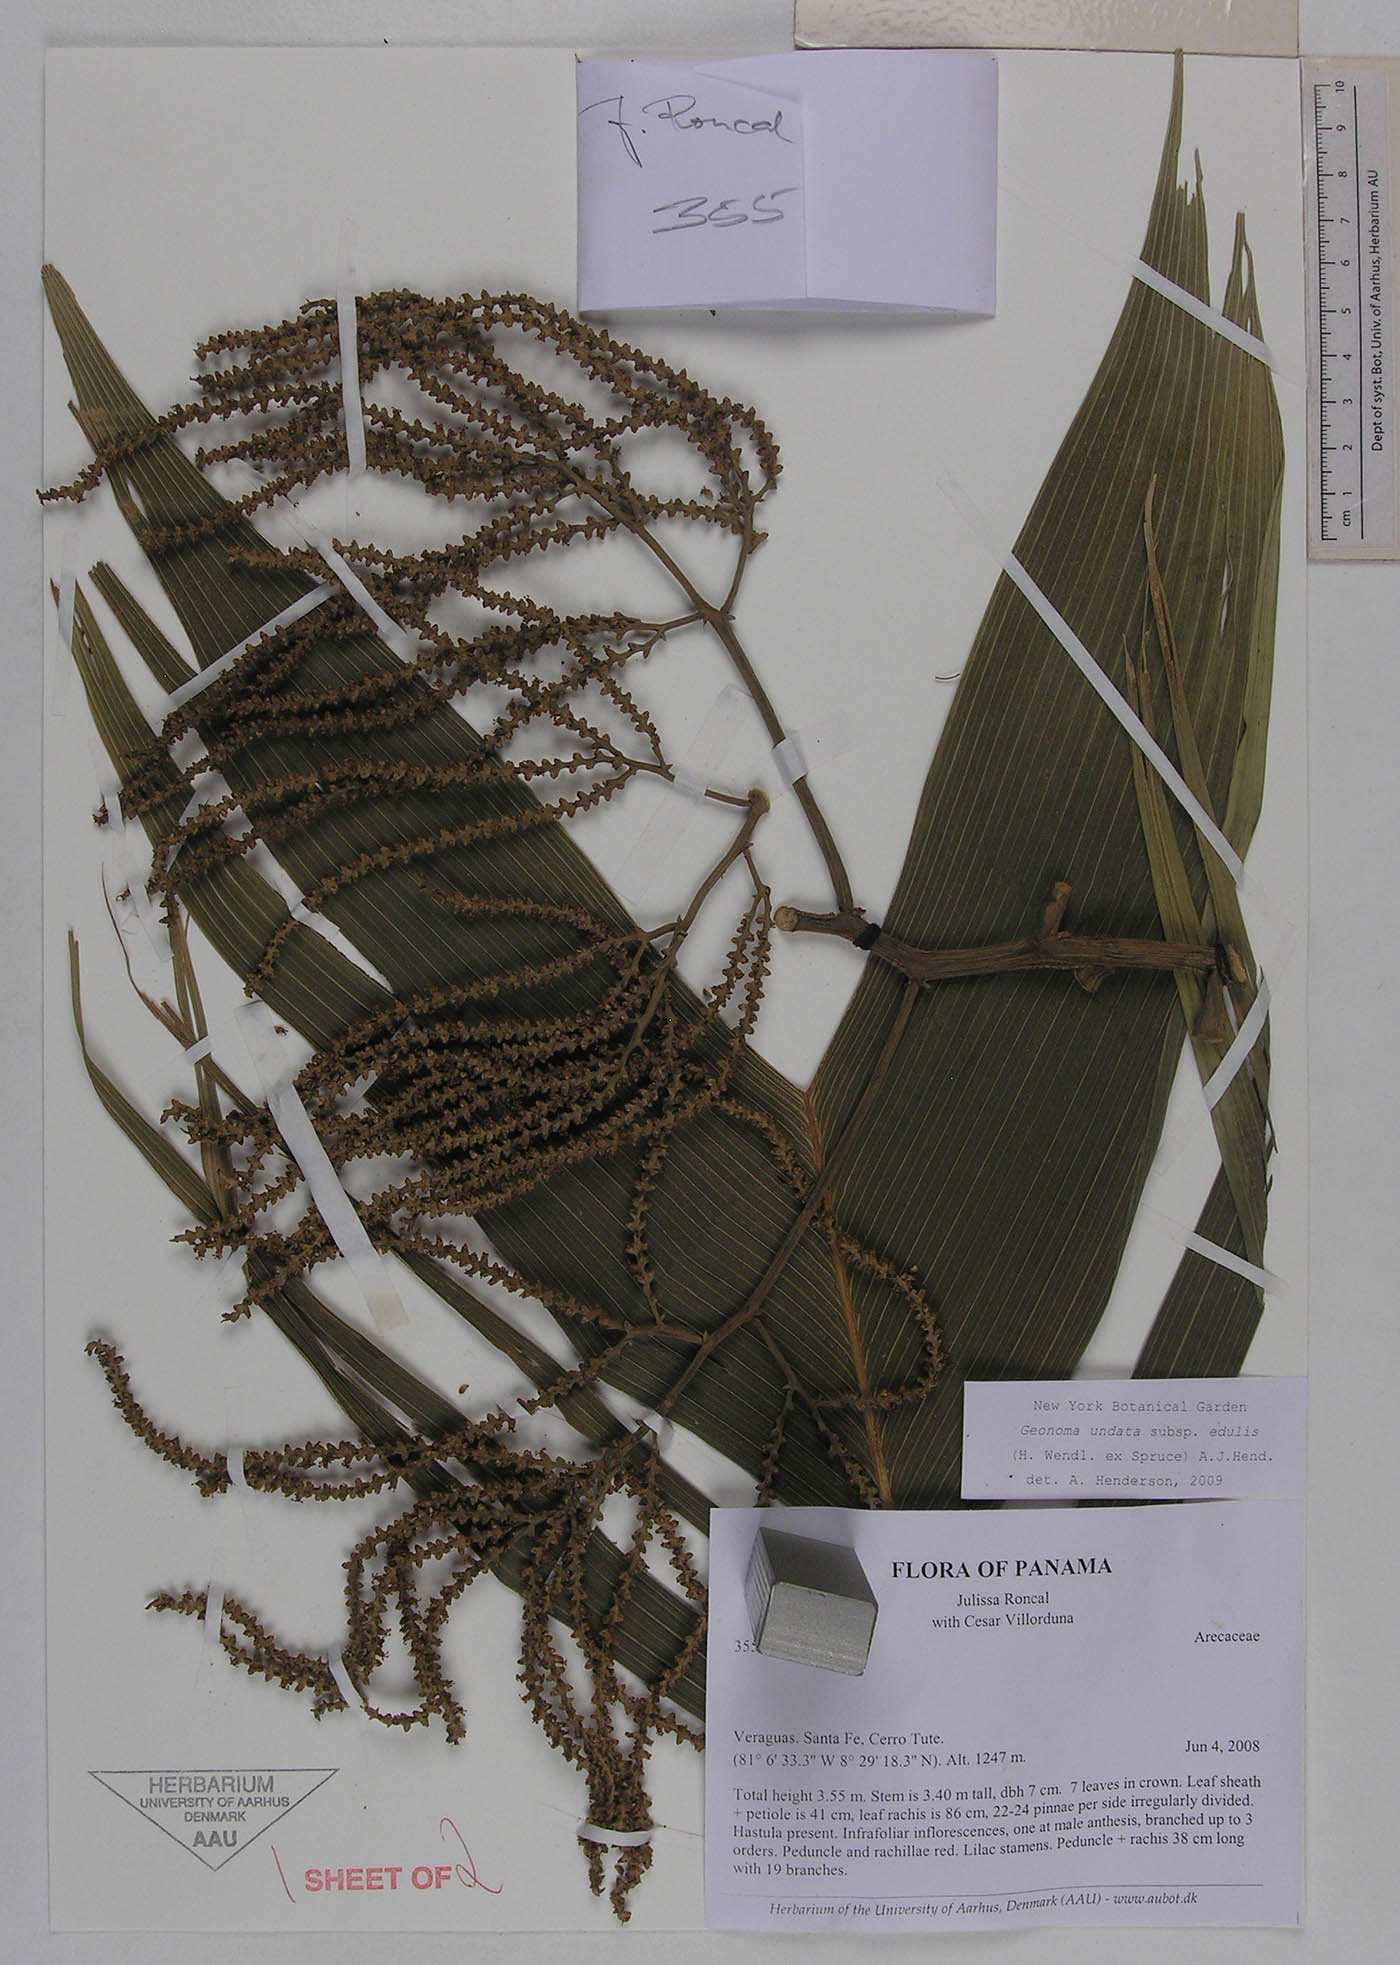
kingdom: Plantae
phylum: Tracheophyta
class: Liliopsida
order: Arecales
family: Arecaceae
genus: Geonoma
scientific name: Geonoma undata
